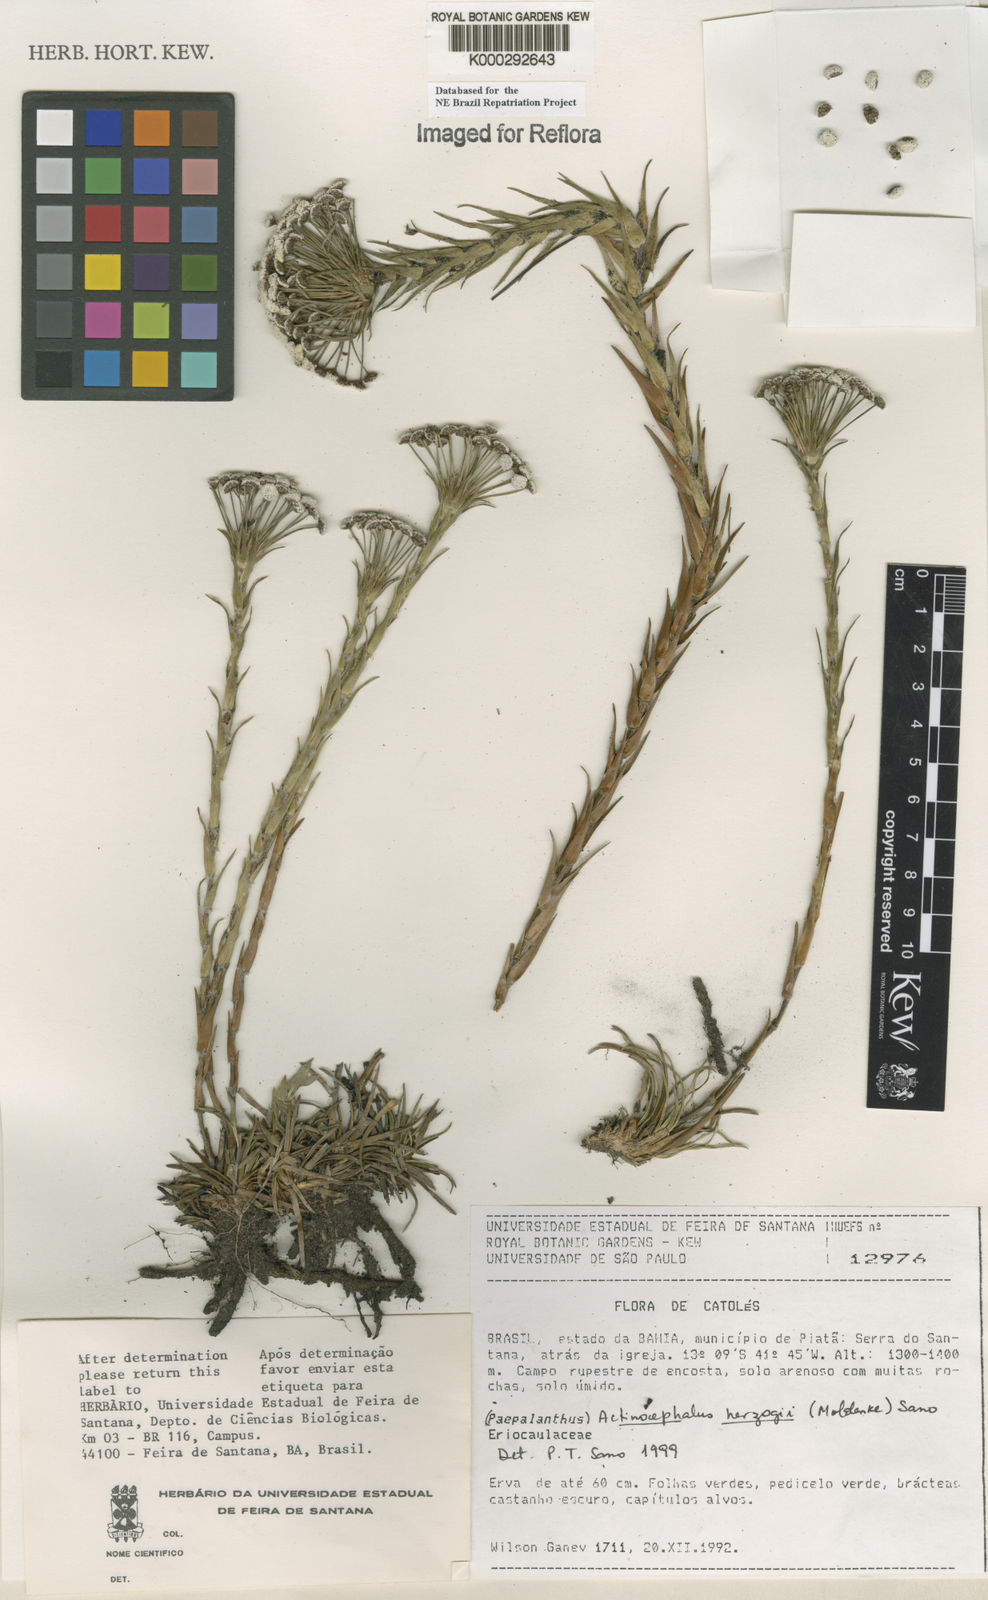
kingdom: Plantae
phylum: Tracheophyta
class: Liliopsida
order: Poales
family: Eriocaulaceae
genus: Paepalanthus
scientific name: Paepalanthus herzogii
